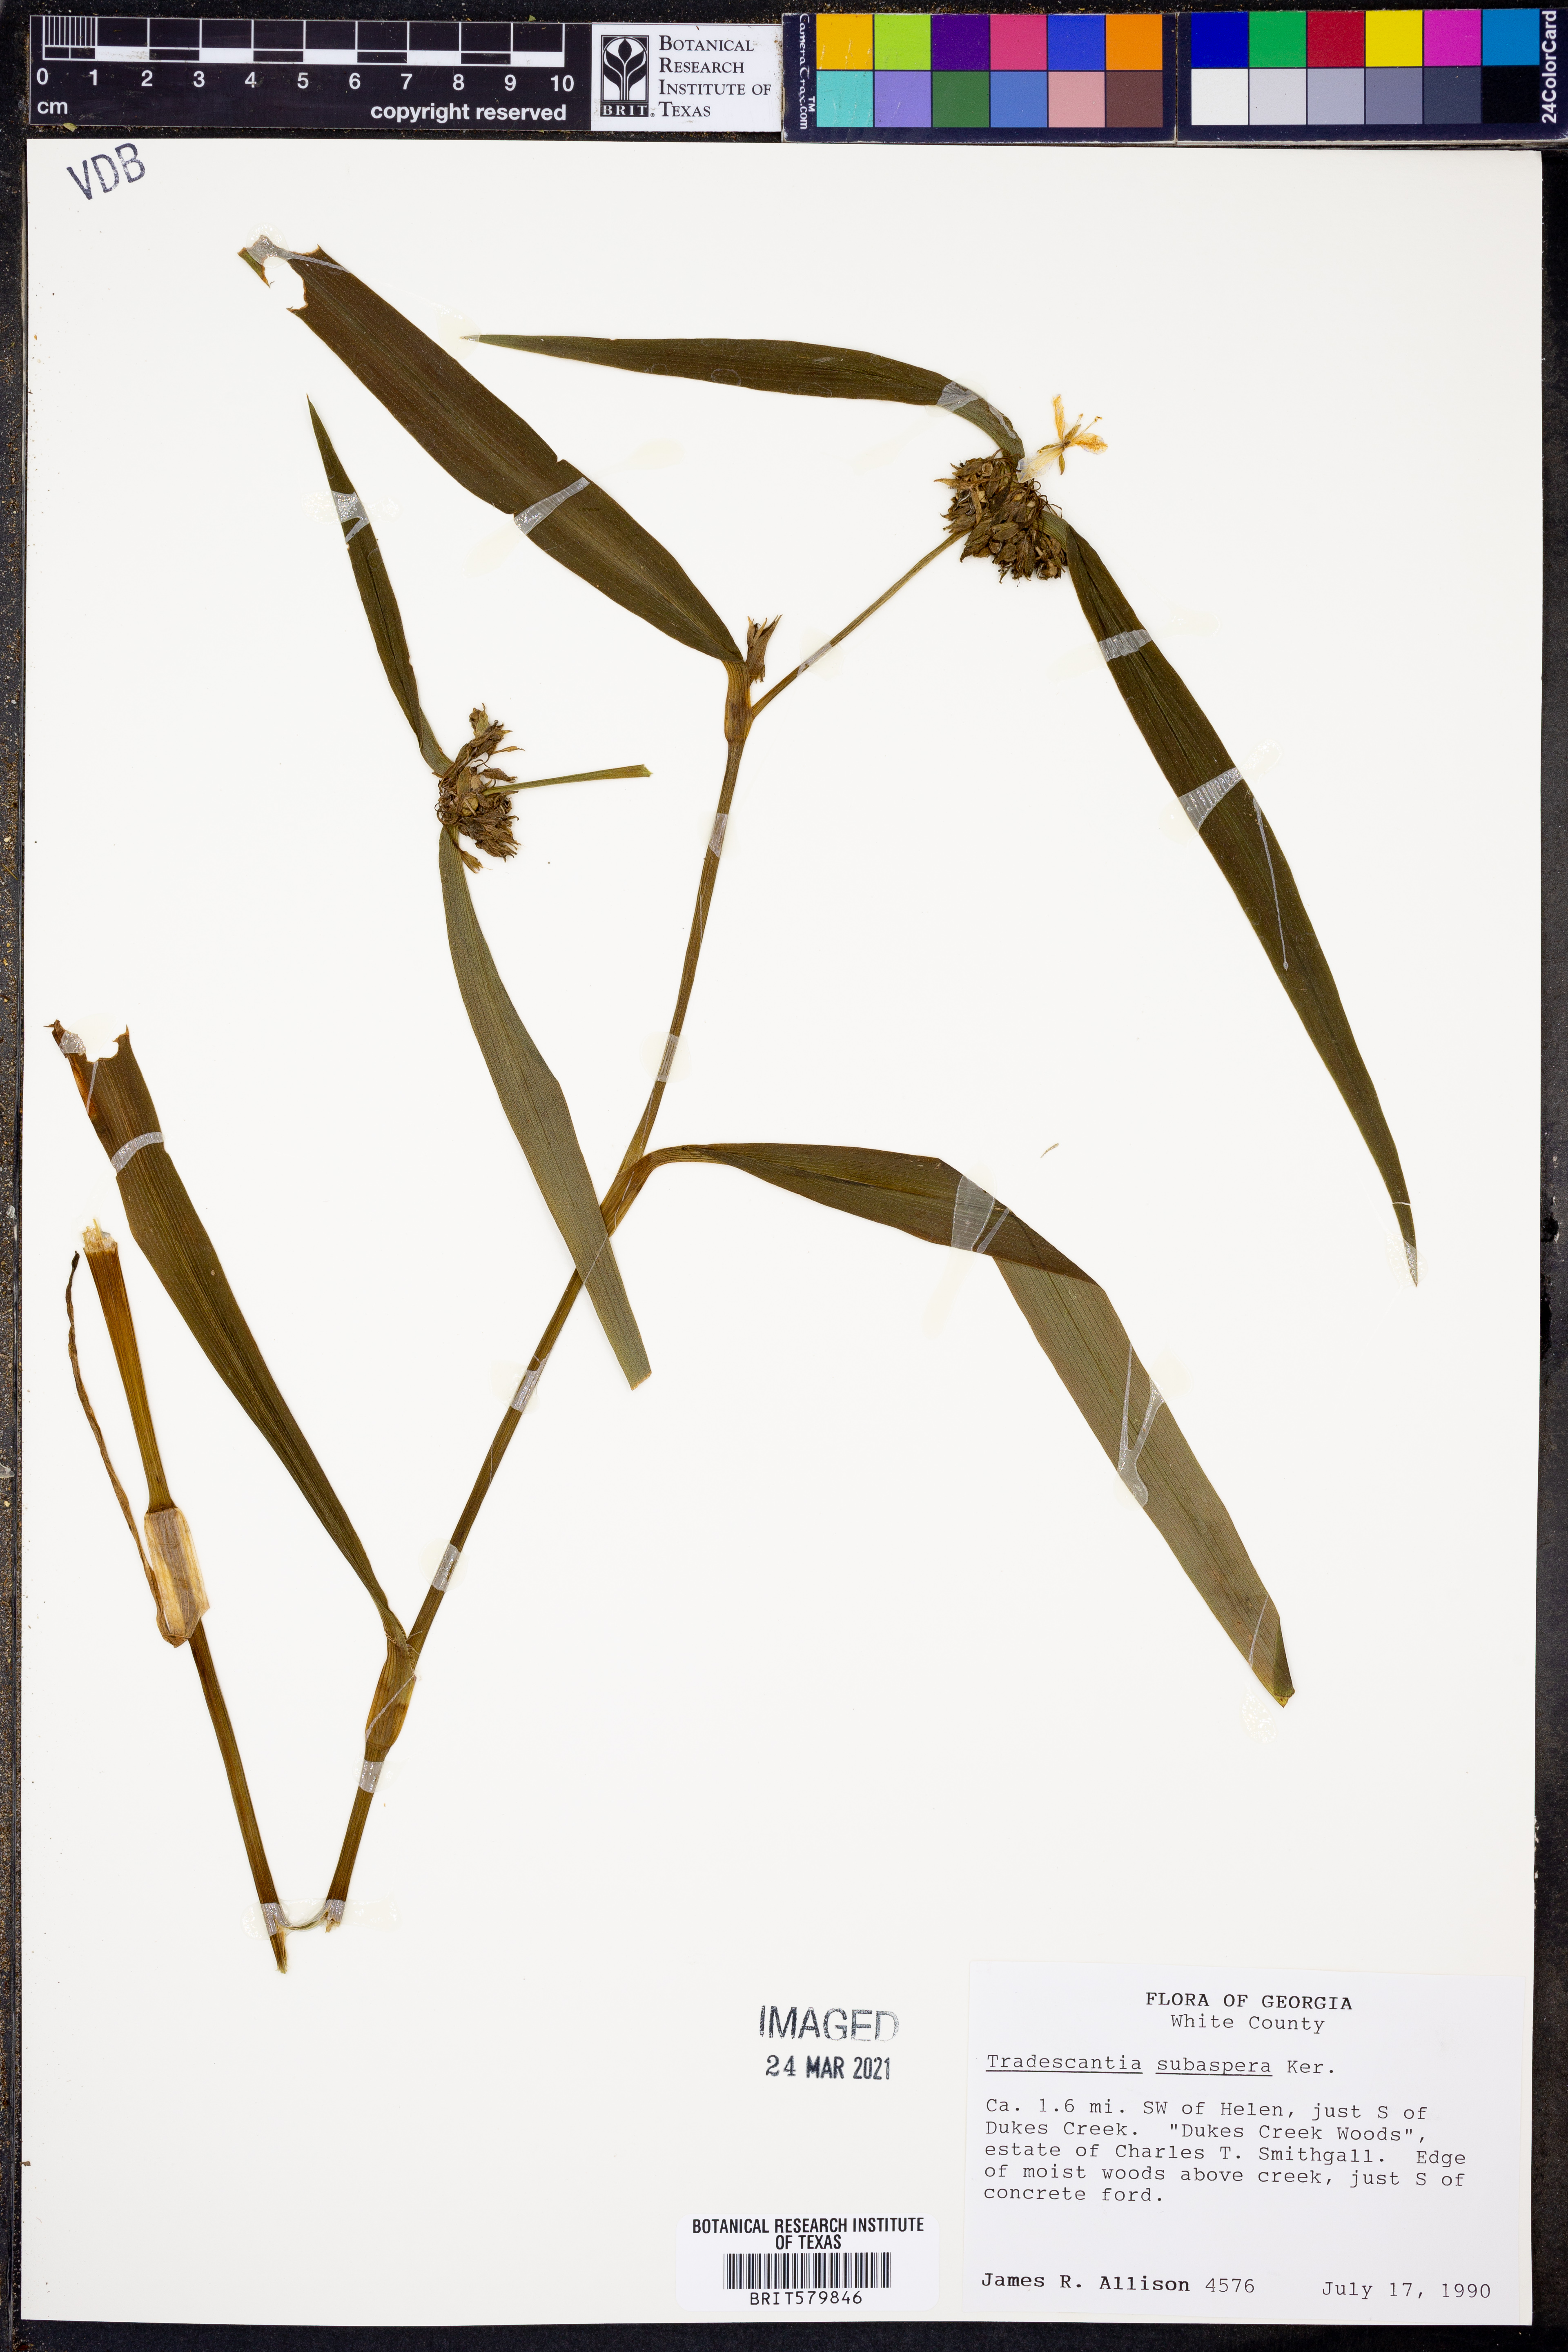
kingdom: Plantae
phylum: Tracheophyta
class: Liliopsida
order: Commelinales
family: Commelinaceae
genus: Tradescantia
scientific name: Tradescantia subaspera
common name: Wide-leaf spiderwort
